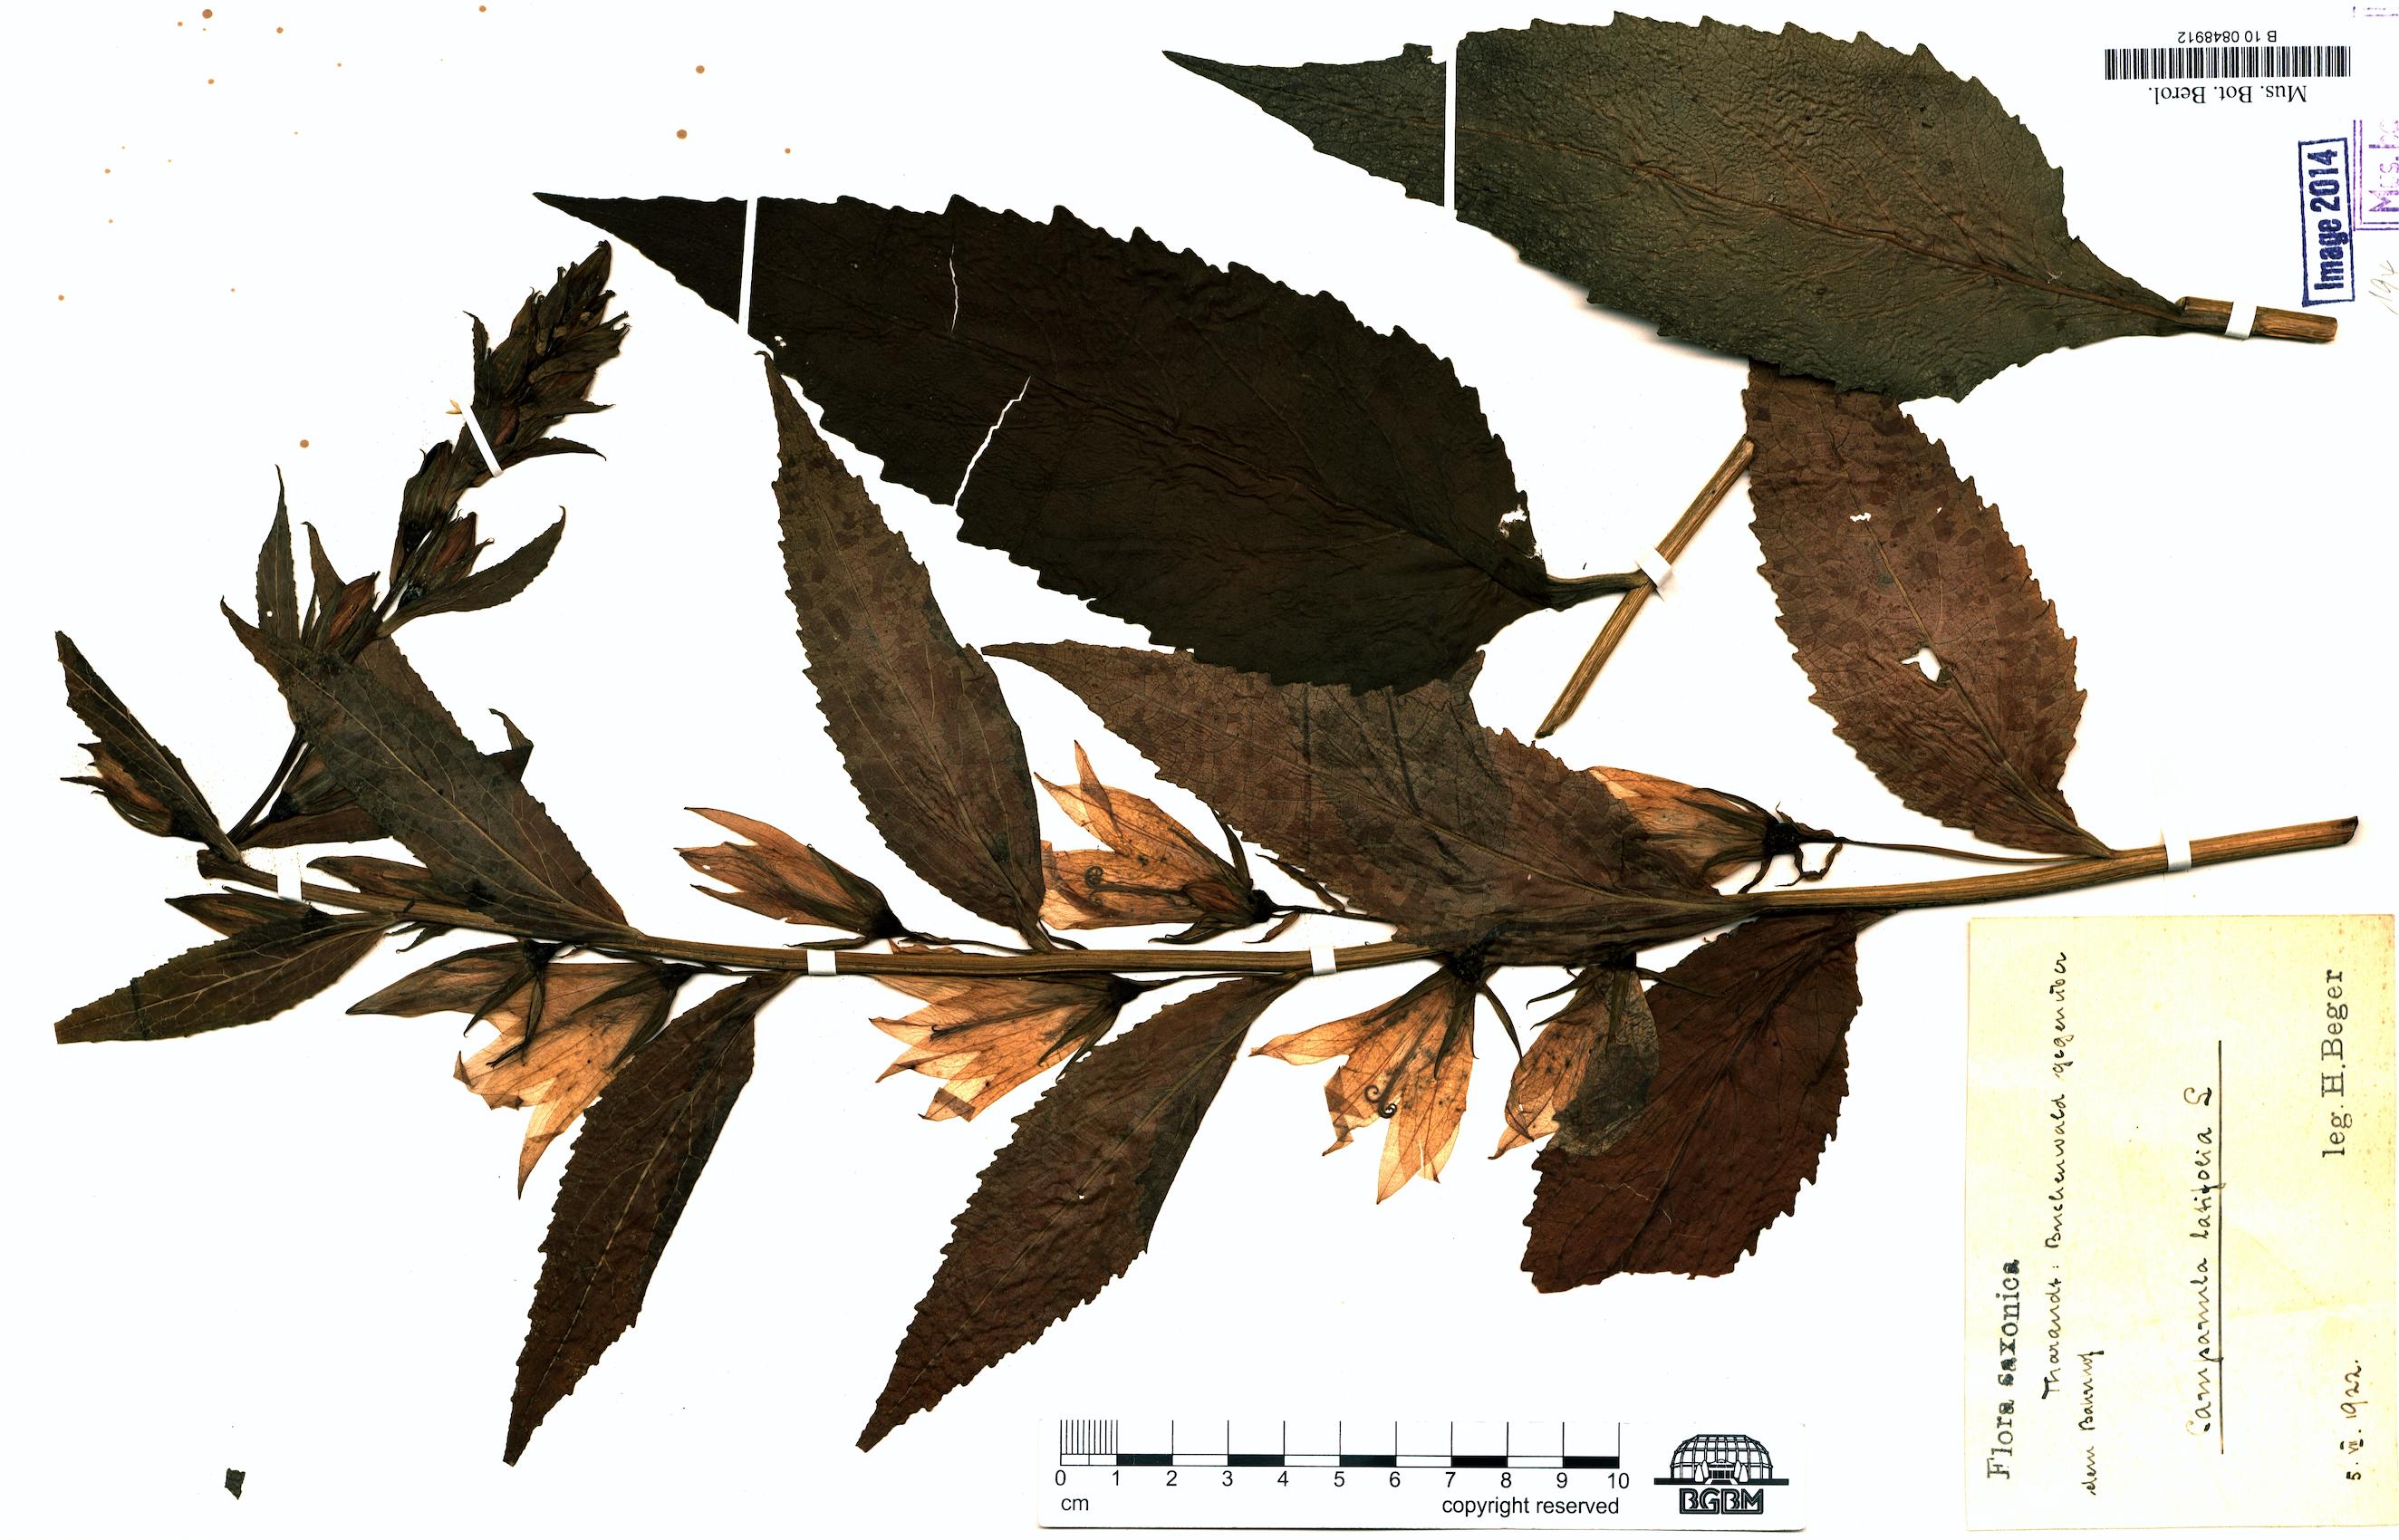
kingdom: Plantae
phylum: Tracheophyta
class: Magnoliopsida
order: Asterales
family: Campanulaceae
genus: Campanula
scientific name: Campanula latifolia
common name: Giant bellflower
